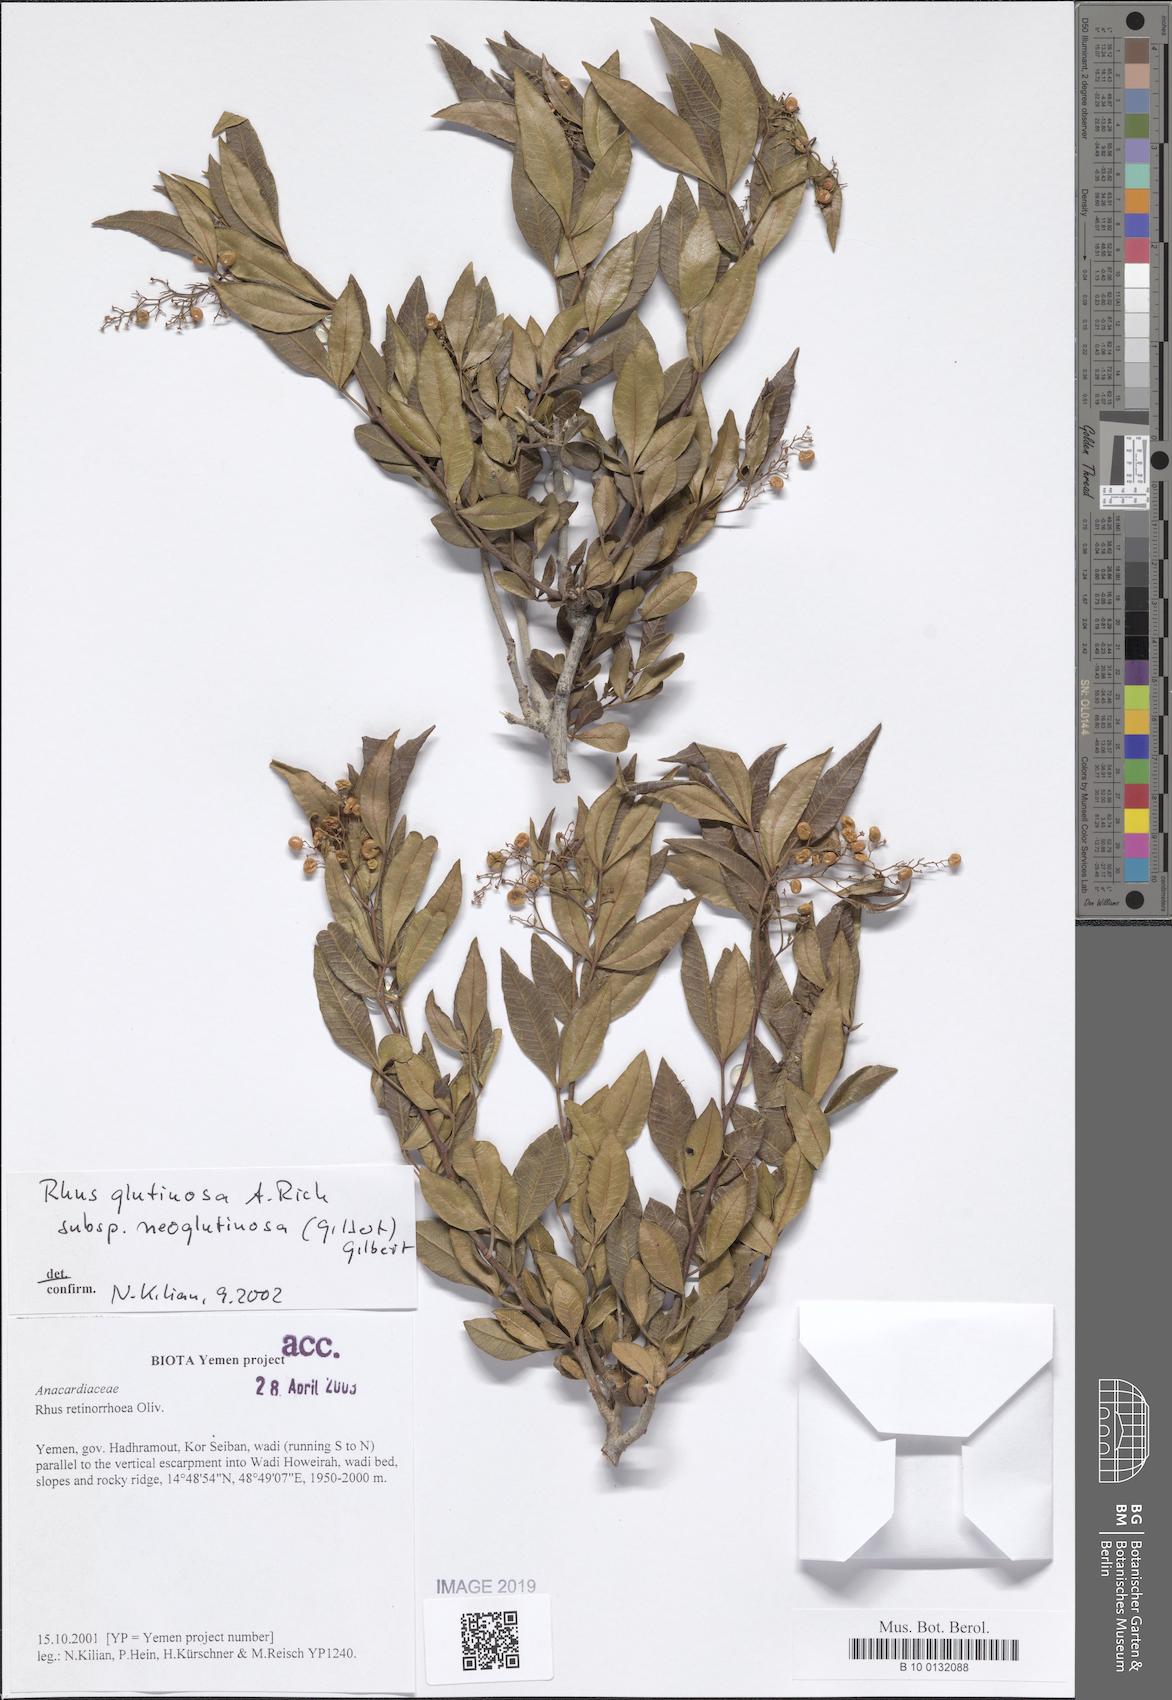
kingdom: Plantae
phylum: Tracheophyta
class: Magnoliopsida
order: Sapindales
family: Anacardiaceae
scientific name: Anacardiaceae
